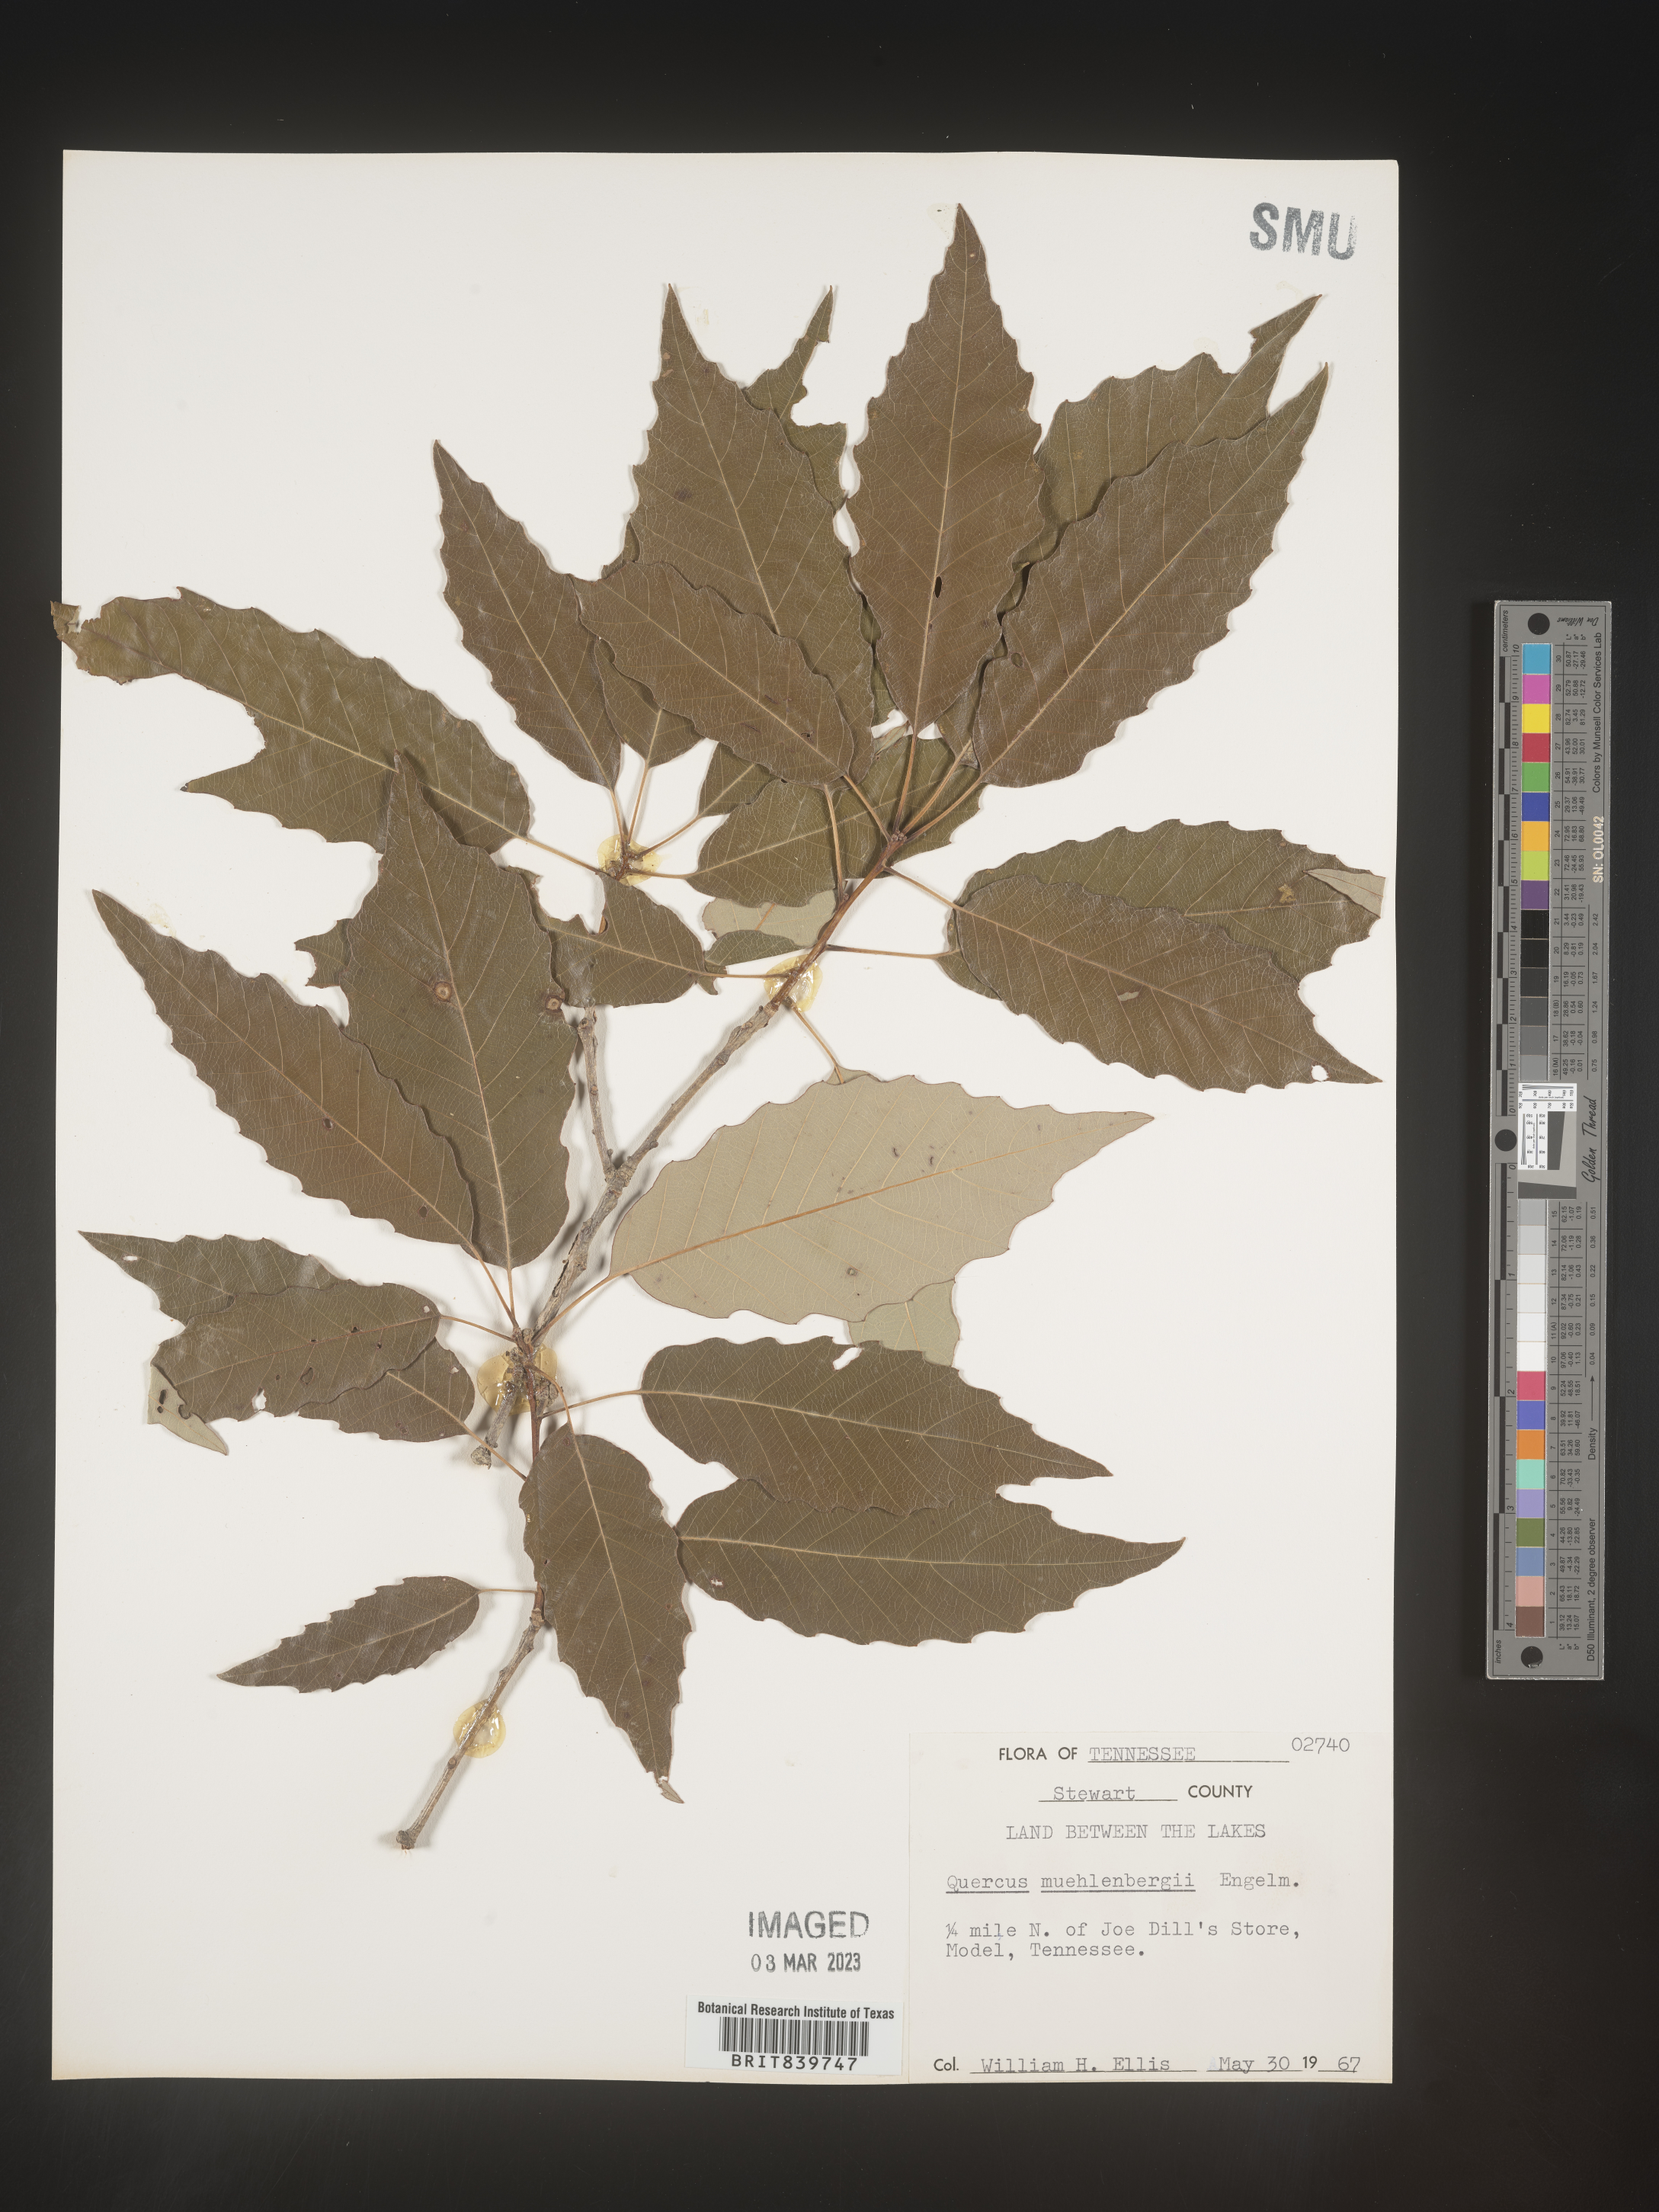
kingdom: Plantae
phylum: Tracheophyta
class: Magnoliopsida
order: Fagales
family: Fagaceae
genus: Quercus
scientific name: Quercus muehlenbergii
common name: Chinkapin oak
